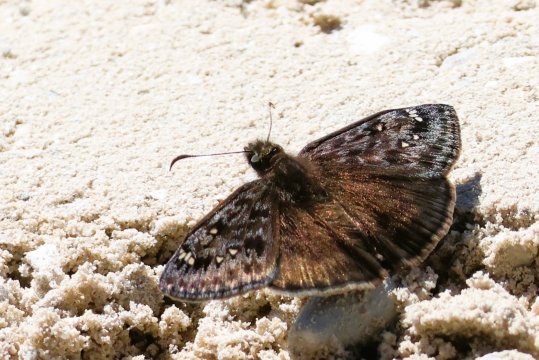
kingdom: Animalia
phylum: Arthropoda
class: Insecta
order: Lepidoptera
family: Hesperiidae
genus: Gesta
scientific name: Gesta
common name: Juvenal's Duskywing
